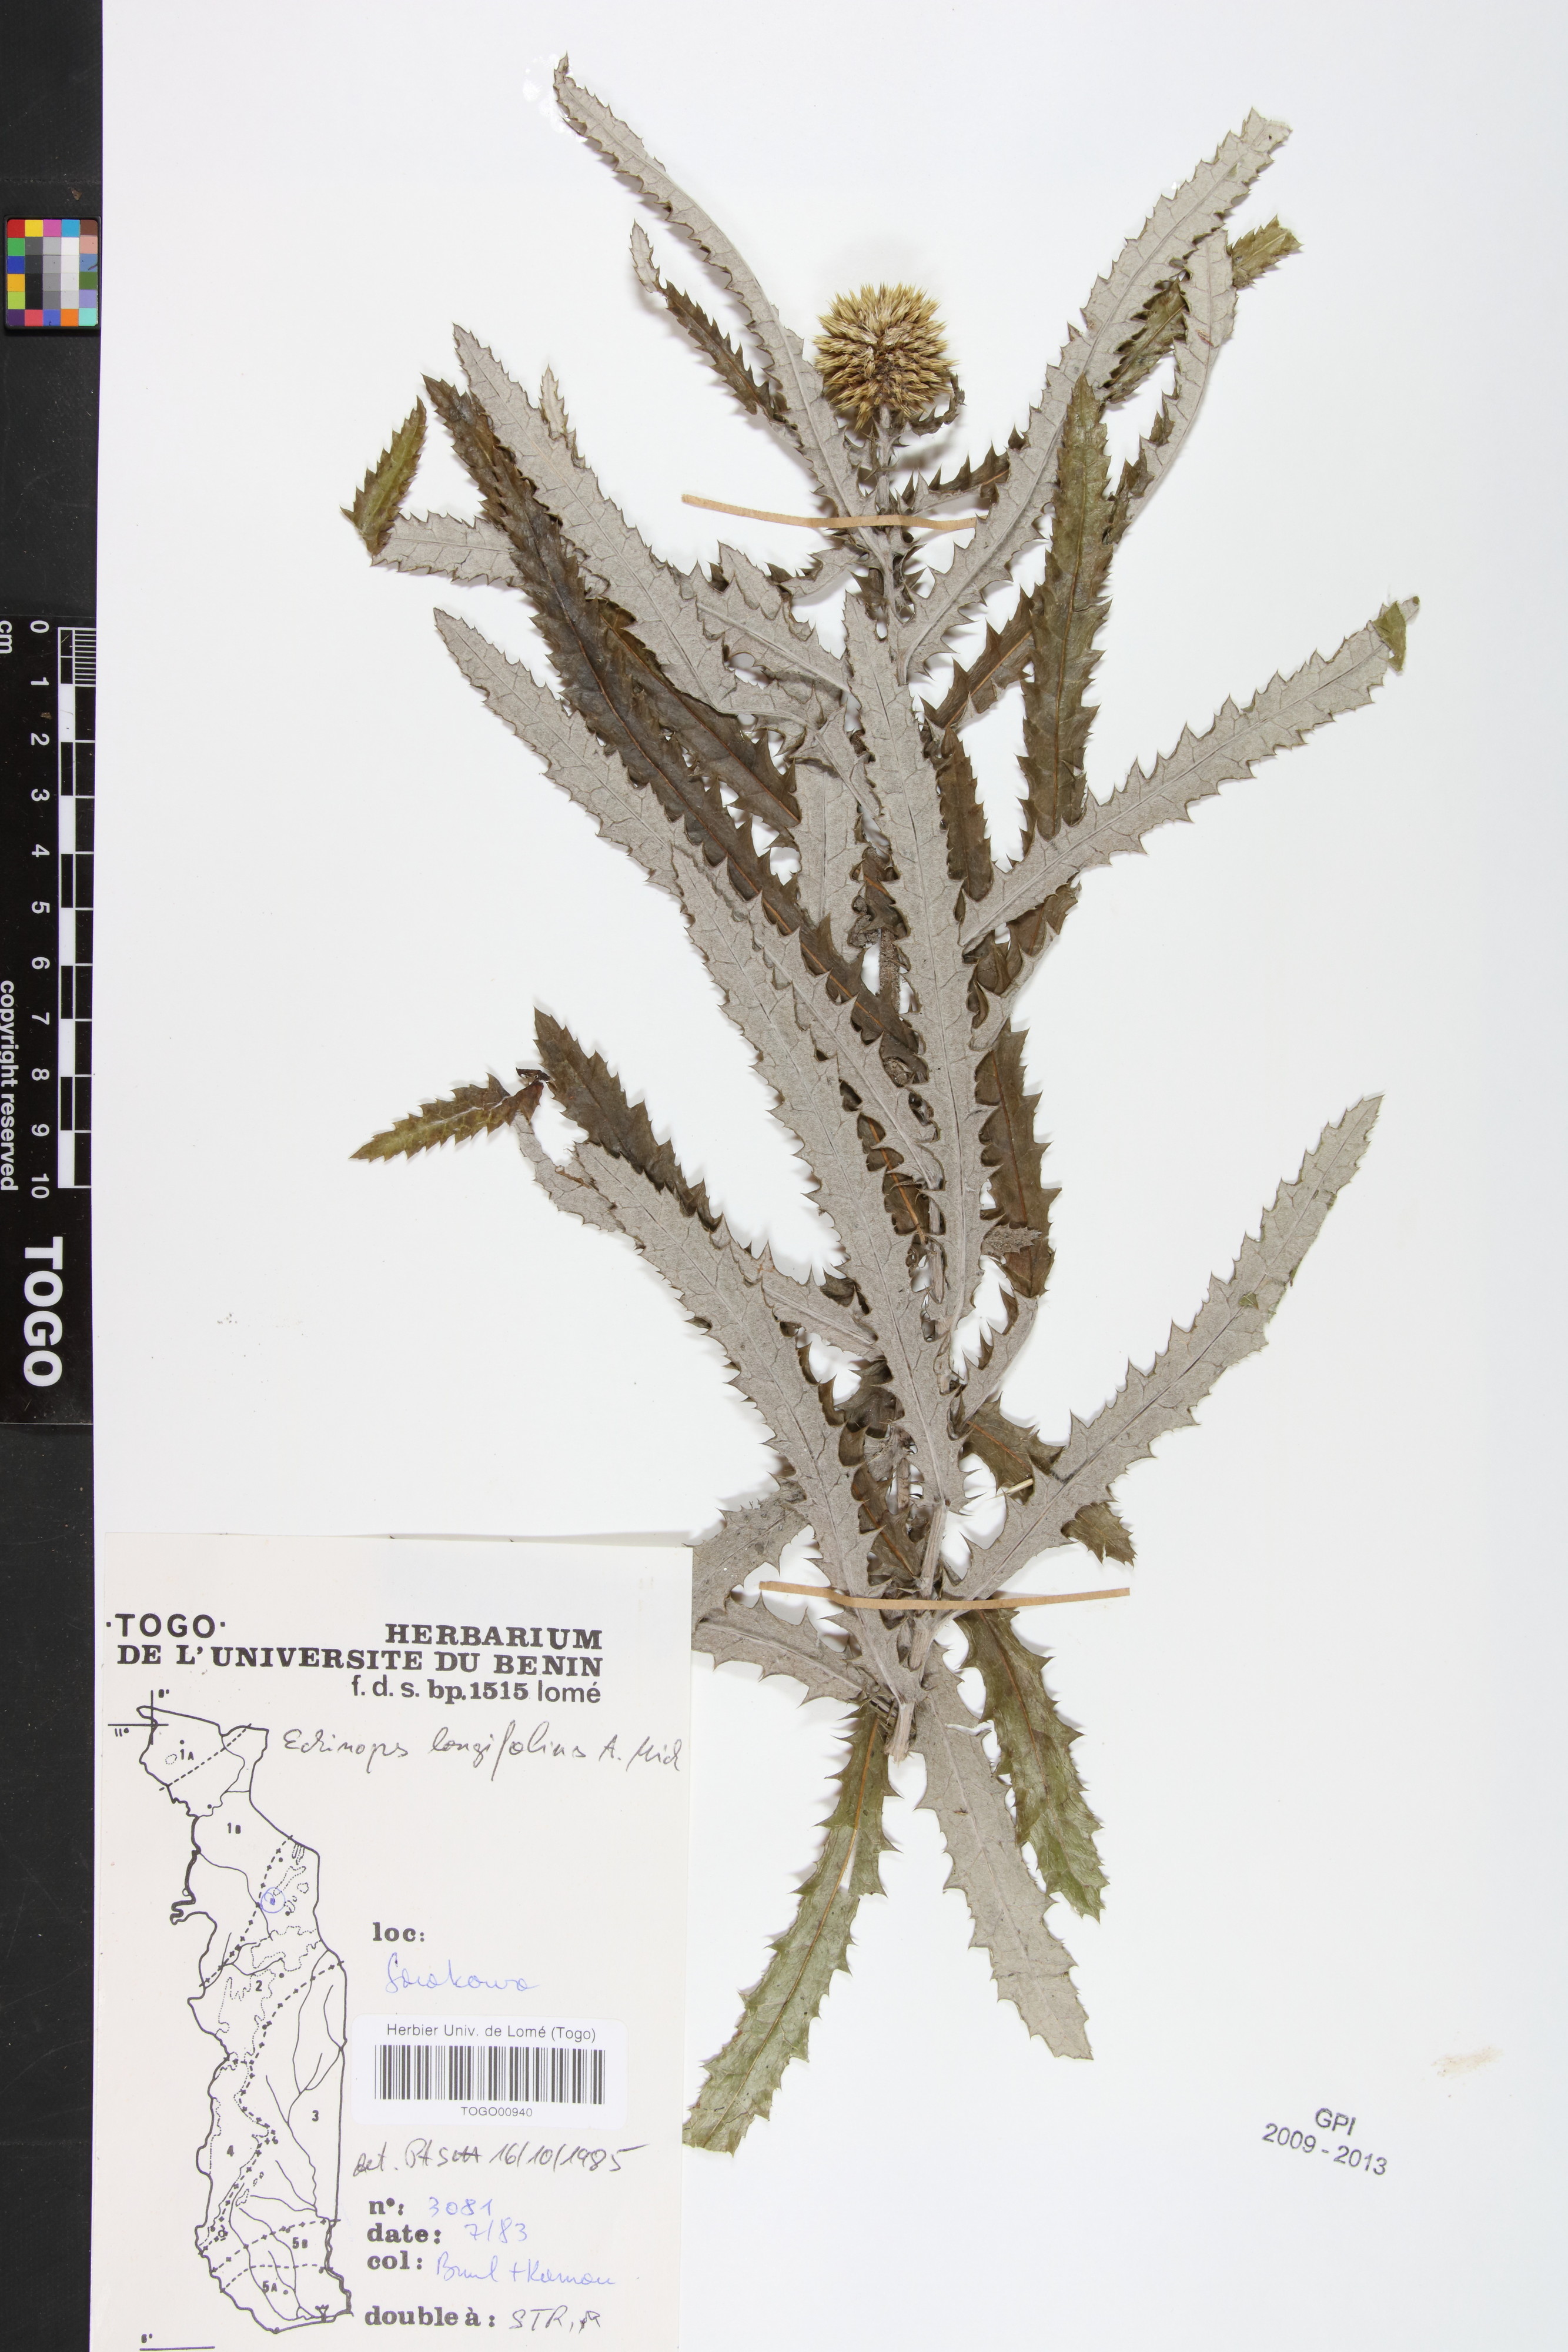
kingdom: Plantae
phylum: Tracheophyta
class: Magnoliopsida
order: Asterales
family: Asteraceae
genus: Echinops
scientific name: Echinops longifolius
